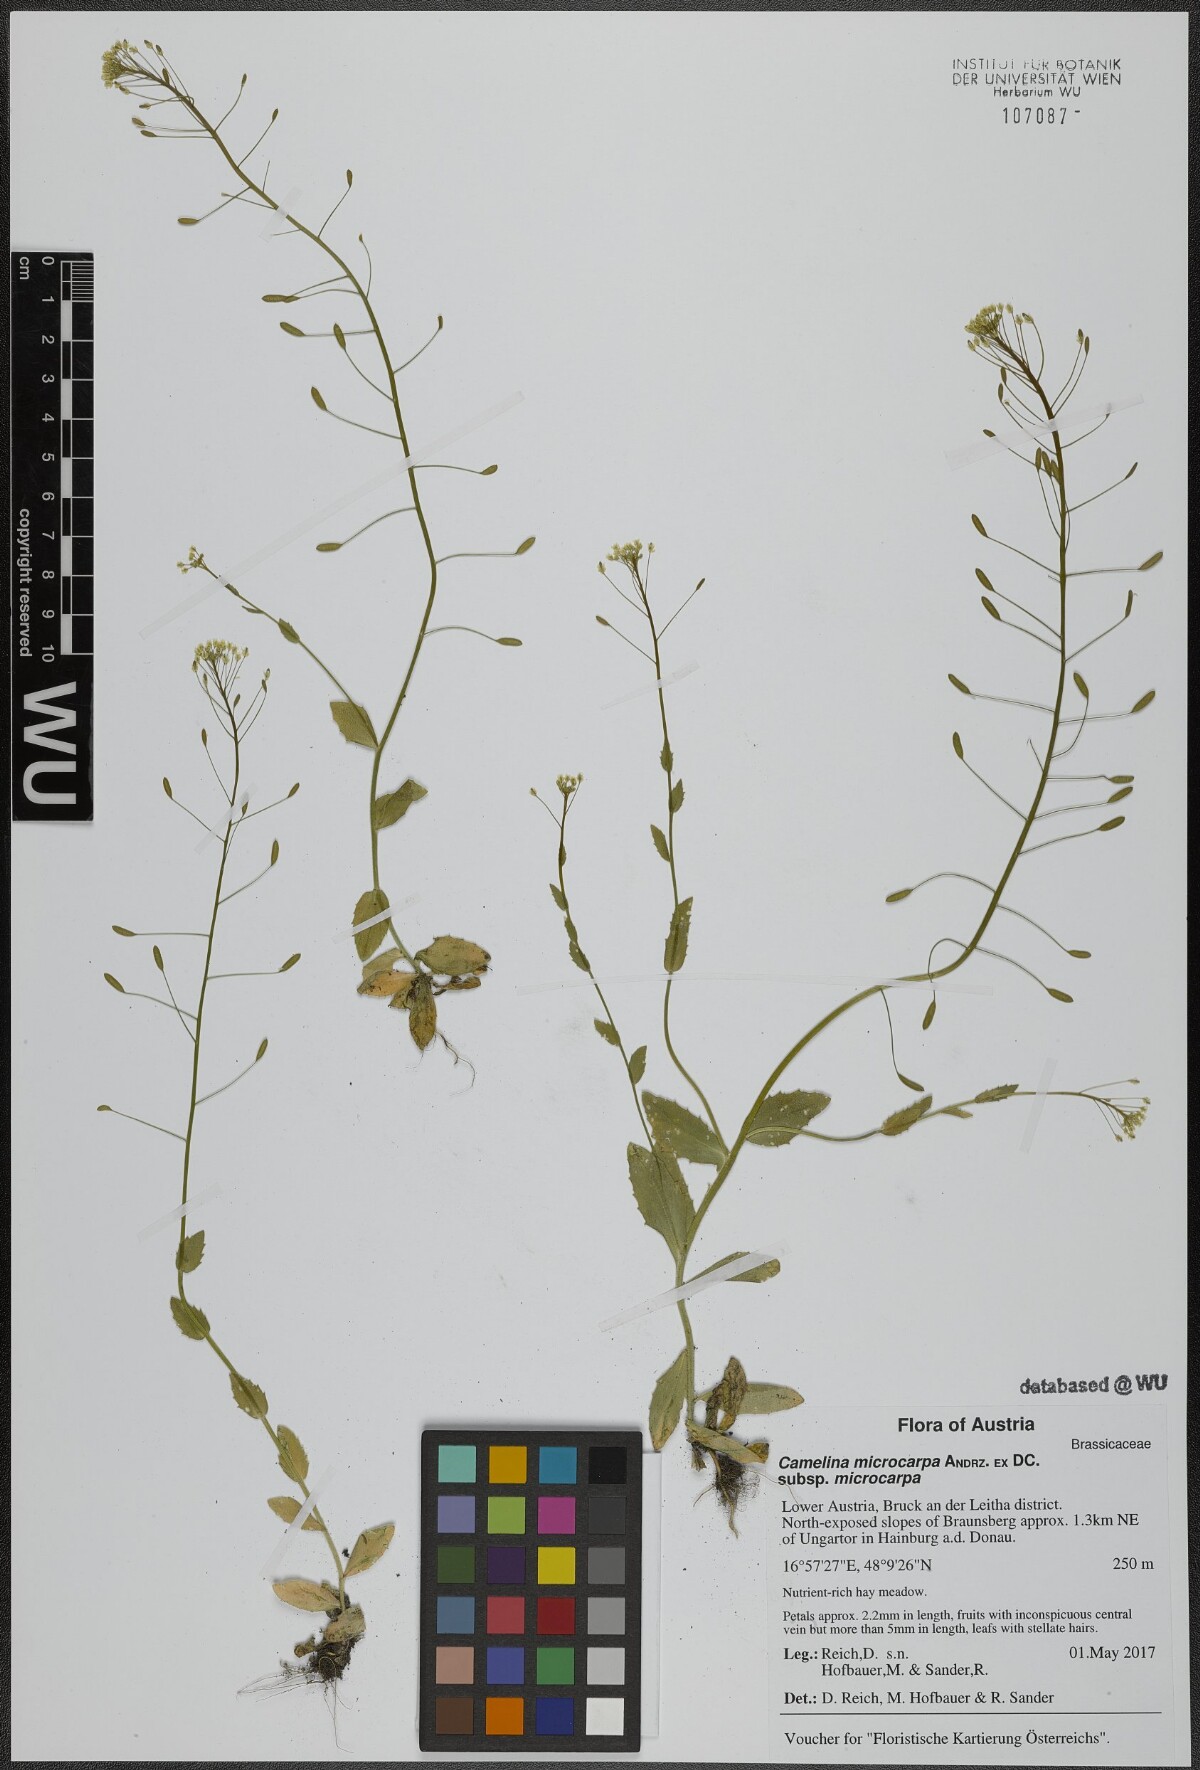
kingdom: Plantae
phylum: Tracheophyta
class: Magnoliopsida
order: Brassicales
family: Brassicaceae
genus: Camelina
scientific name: Camelina microcarpa
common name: Lesser gold-of-pleasure
